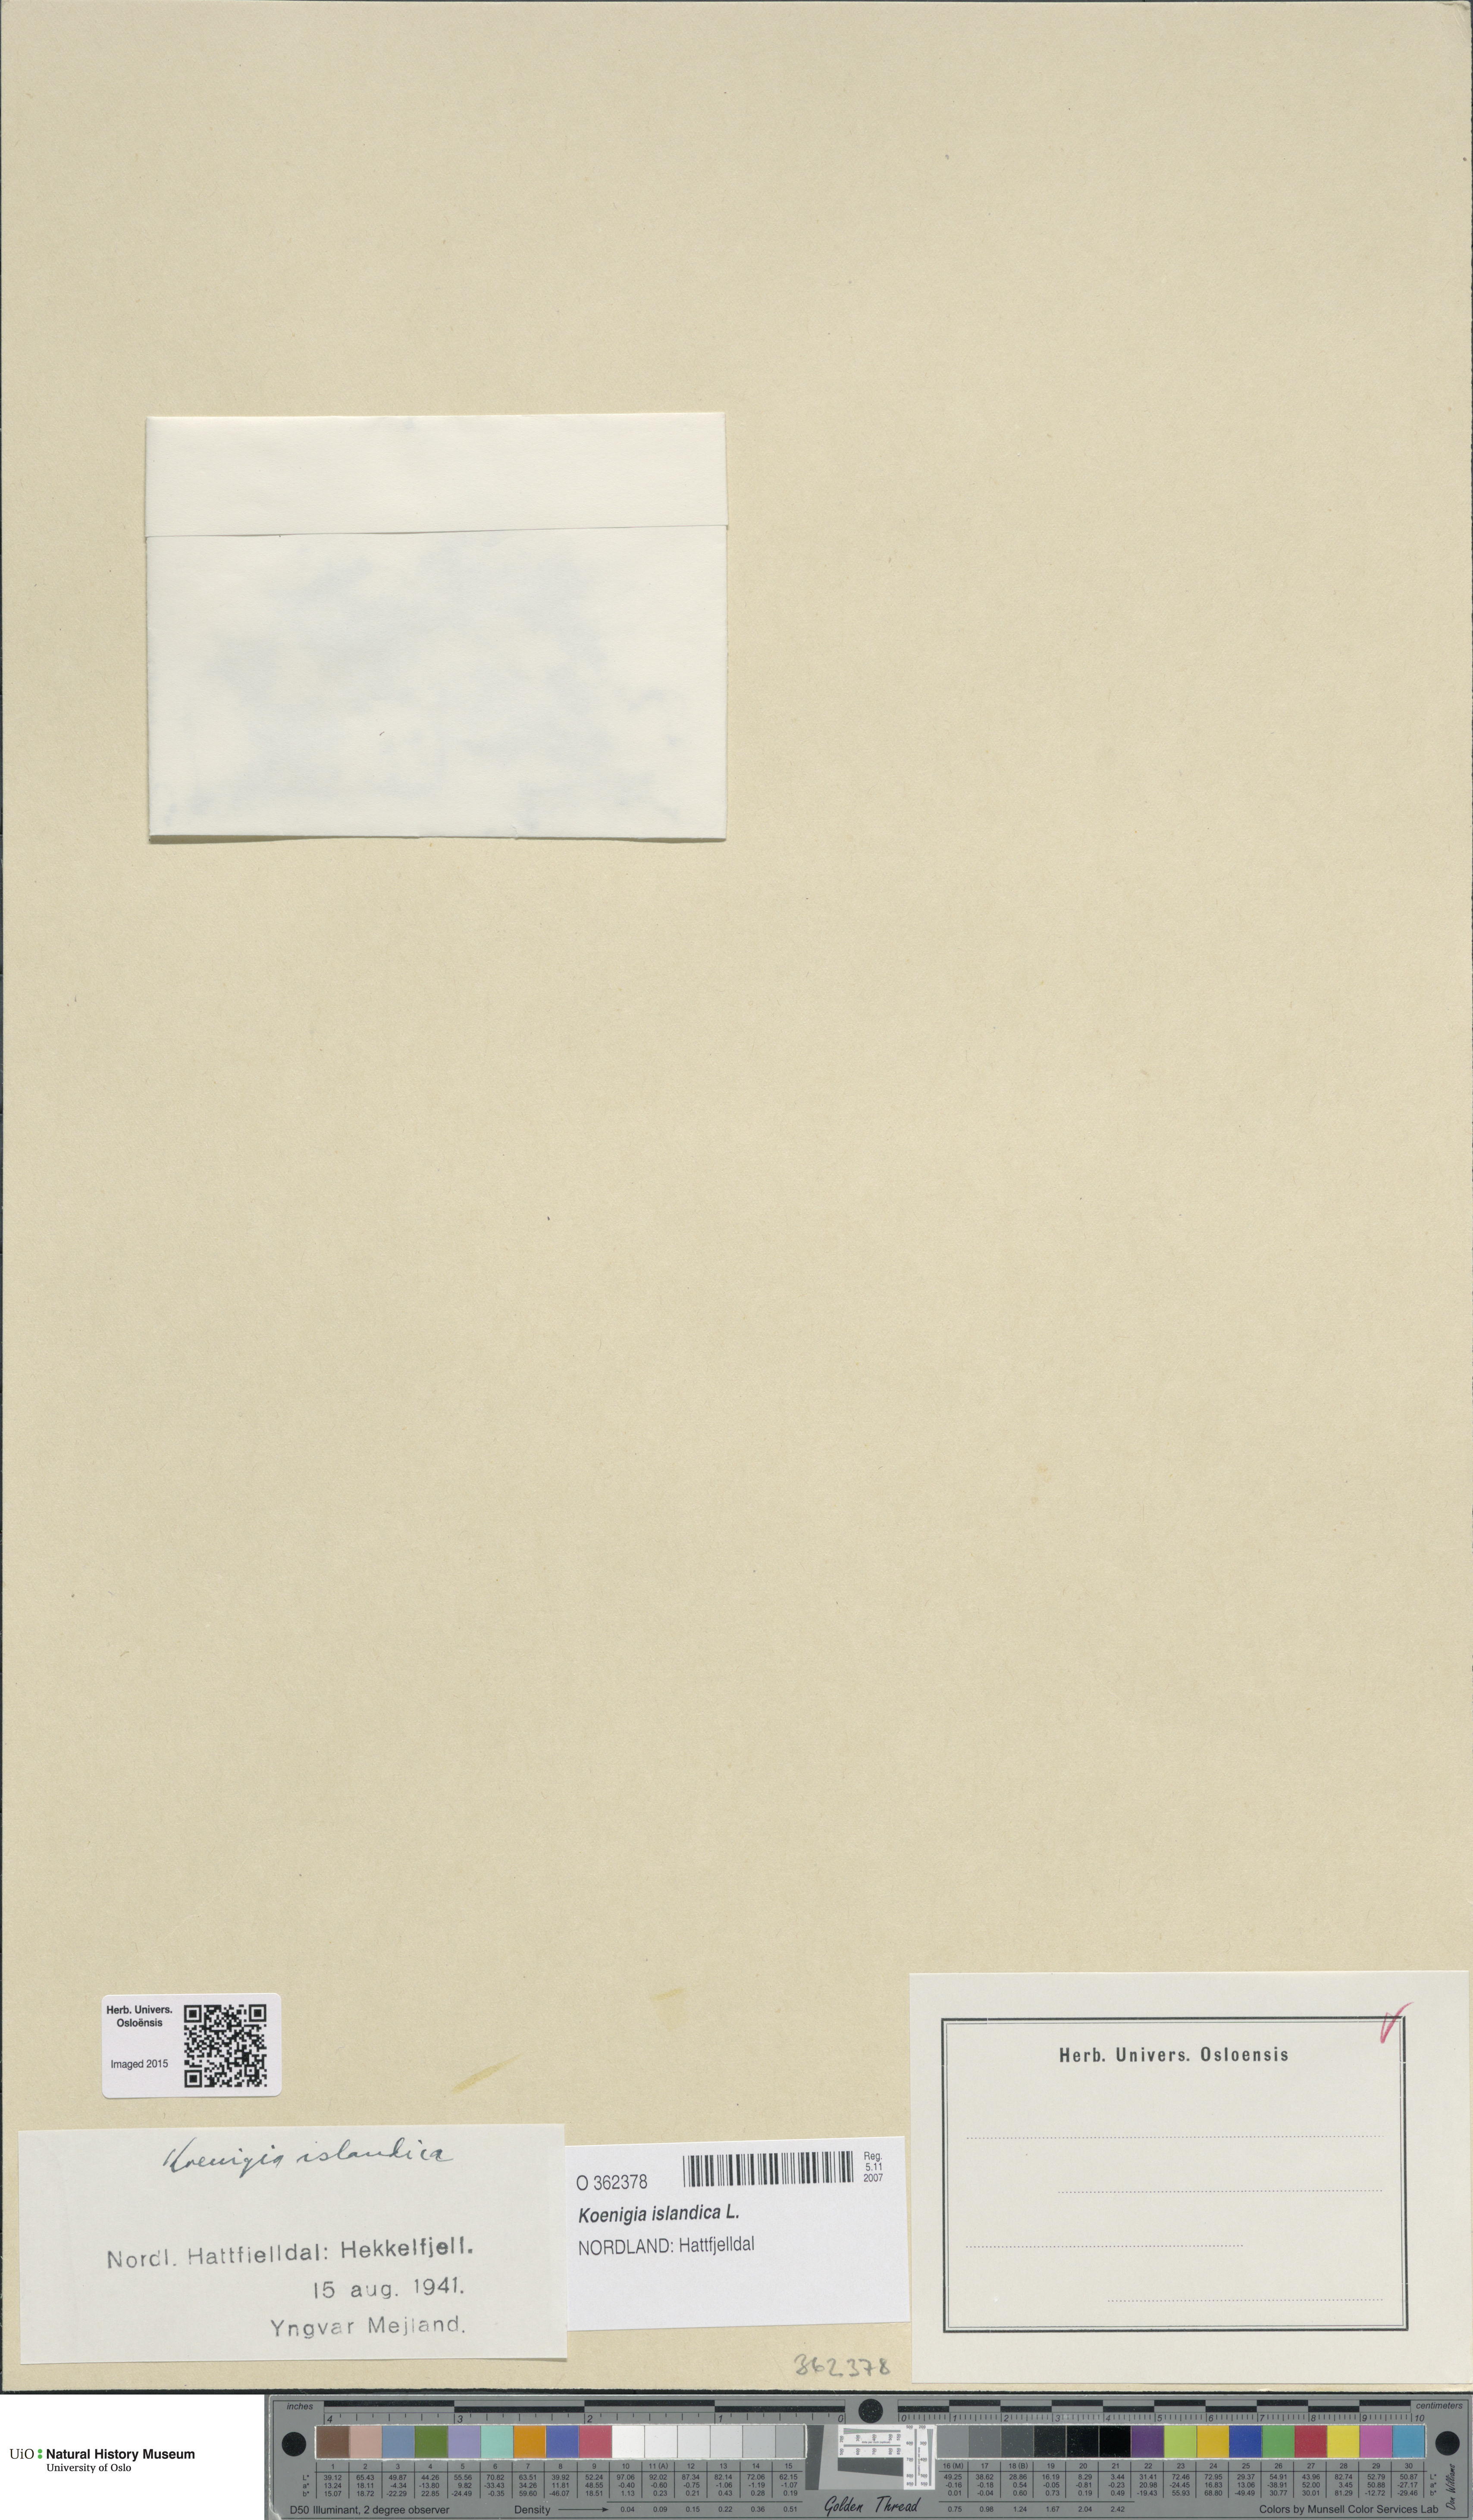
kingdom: Plantae
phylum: Tracheophyta
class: Magnoliopsida
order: Caryophyllales
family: Polygonaceae
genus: Koenigia
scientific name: Koenigia islandica
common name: Iceland-purslane
